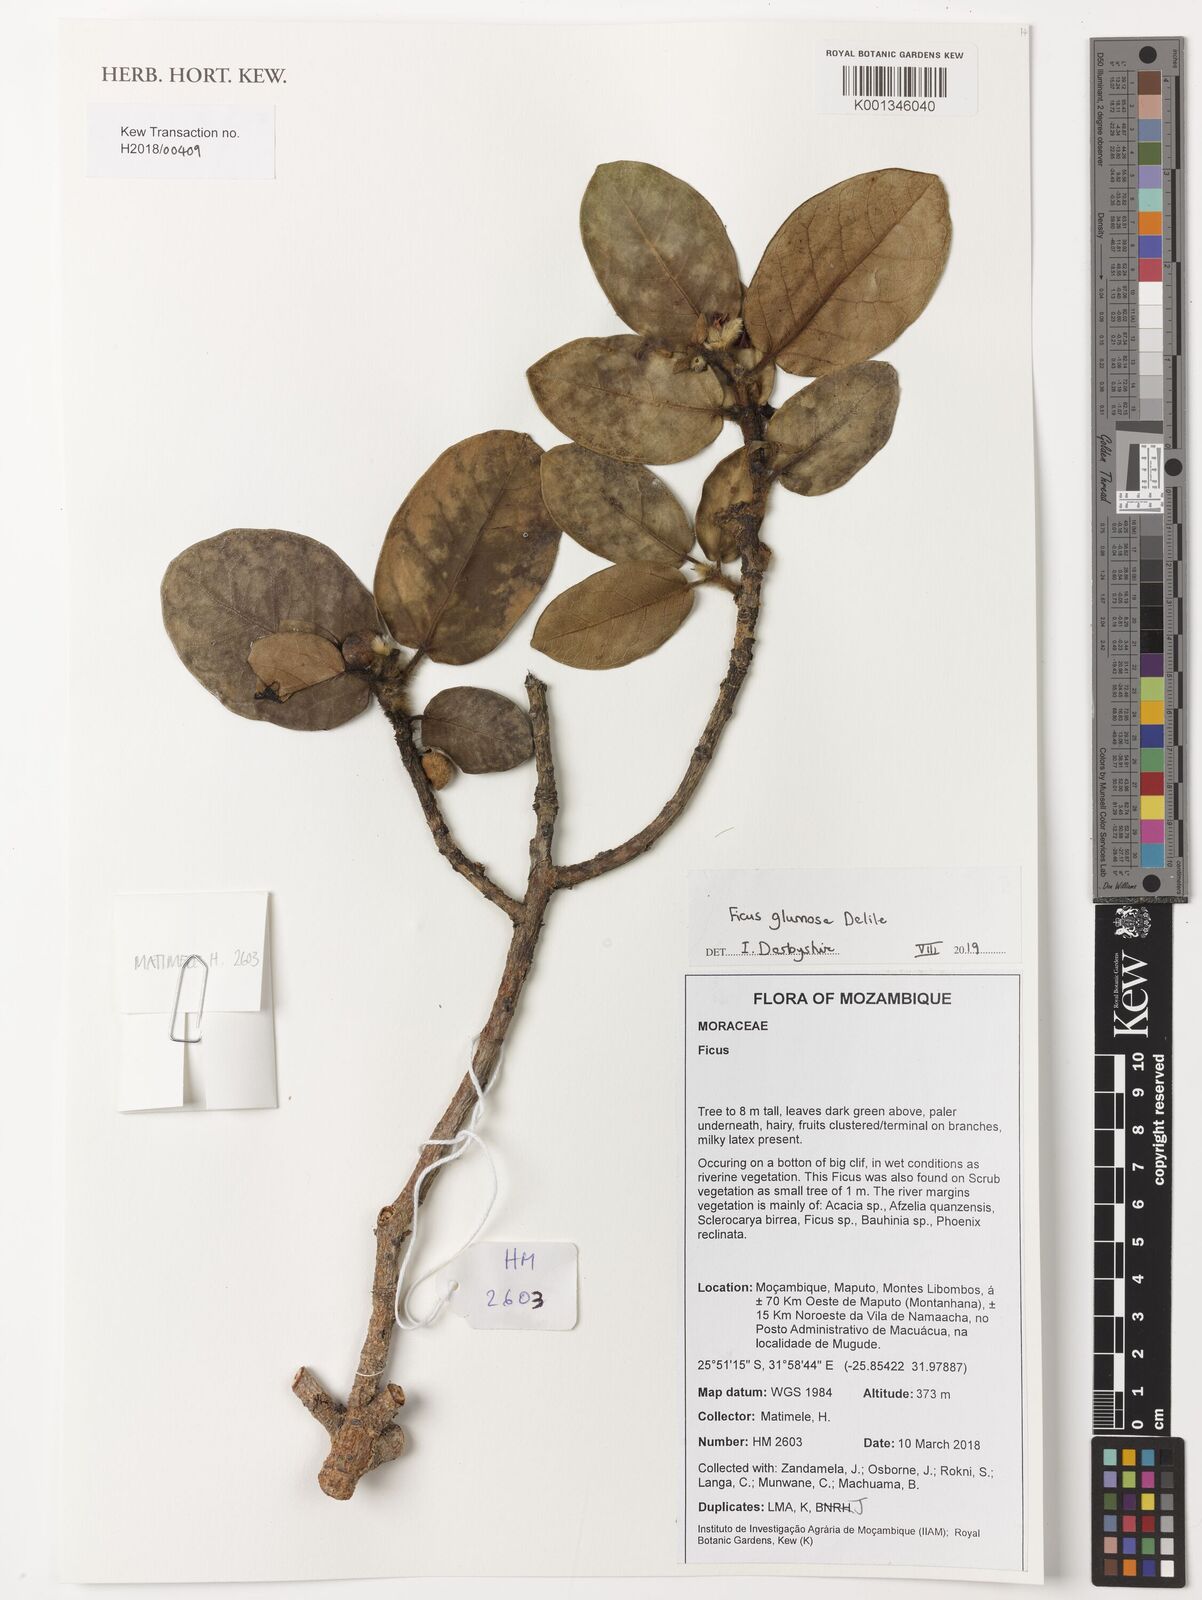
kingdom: Plantae
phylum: Tracheophyta
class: Magnoliopsida
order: Rosales
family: Moraceae
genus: Ficus
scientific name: Ficus glumosa
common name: Hairy rock fig
